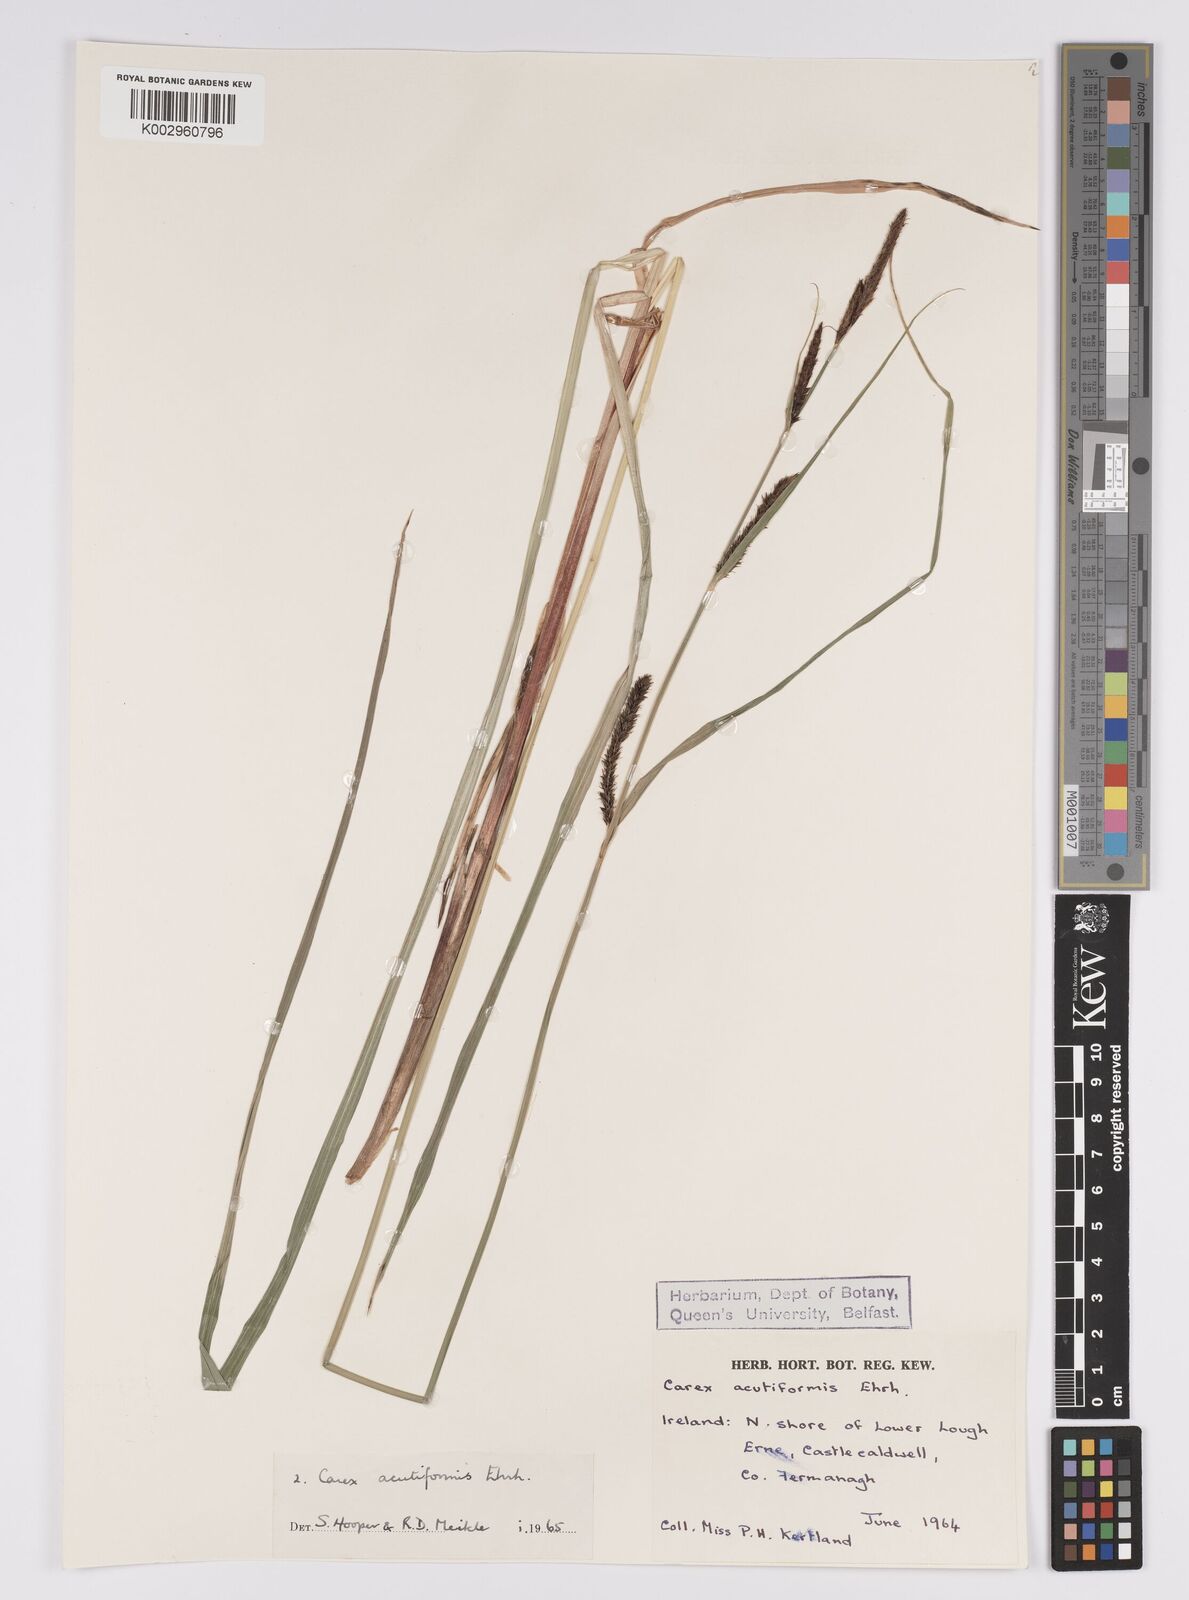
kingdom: Plantae
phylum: Tracheophyta
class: Liliopsida
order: Poales
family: Cyperaceae
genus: Carex
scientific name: Carex acutiformis
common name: Lesser pond-sedge
